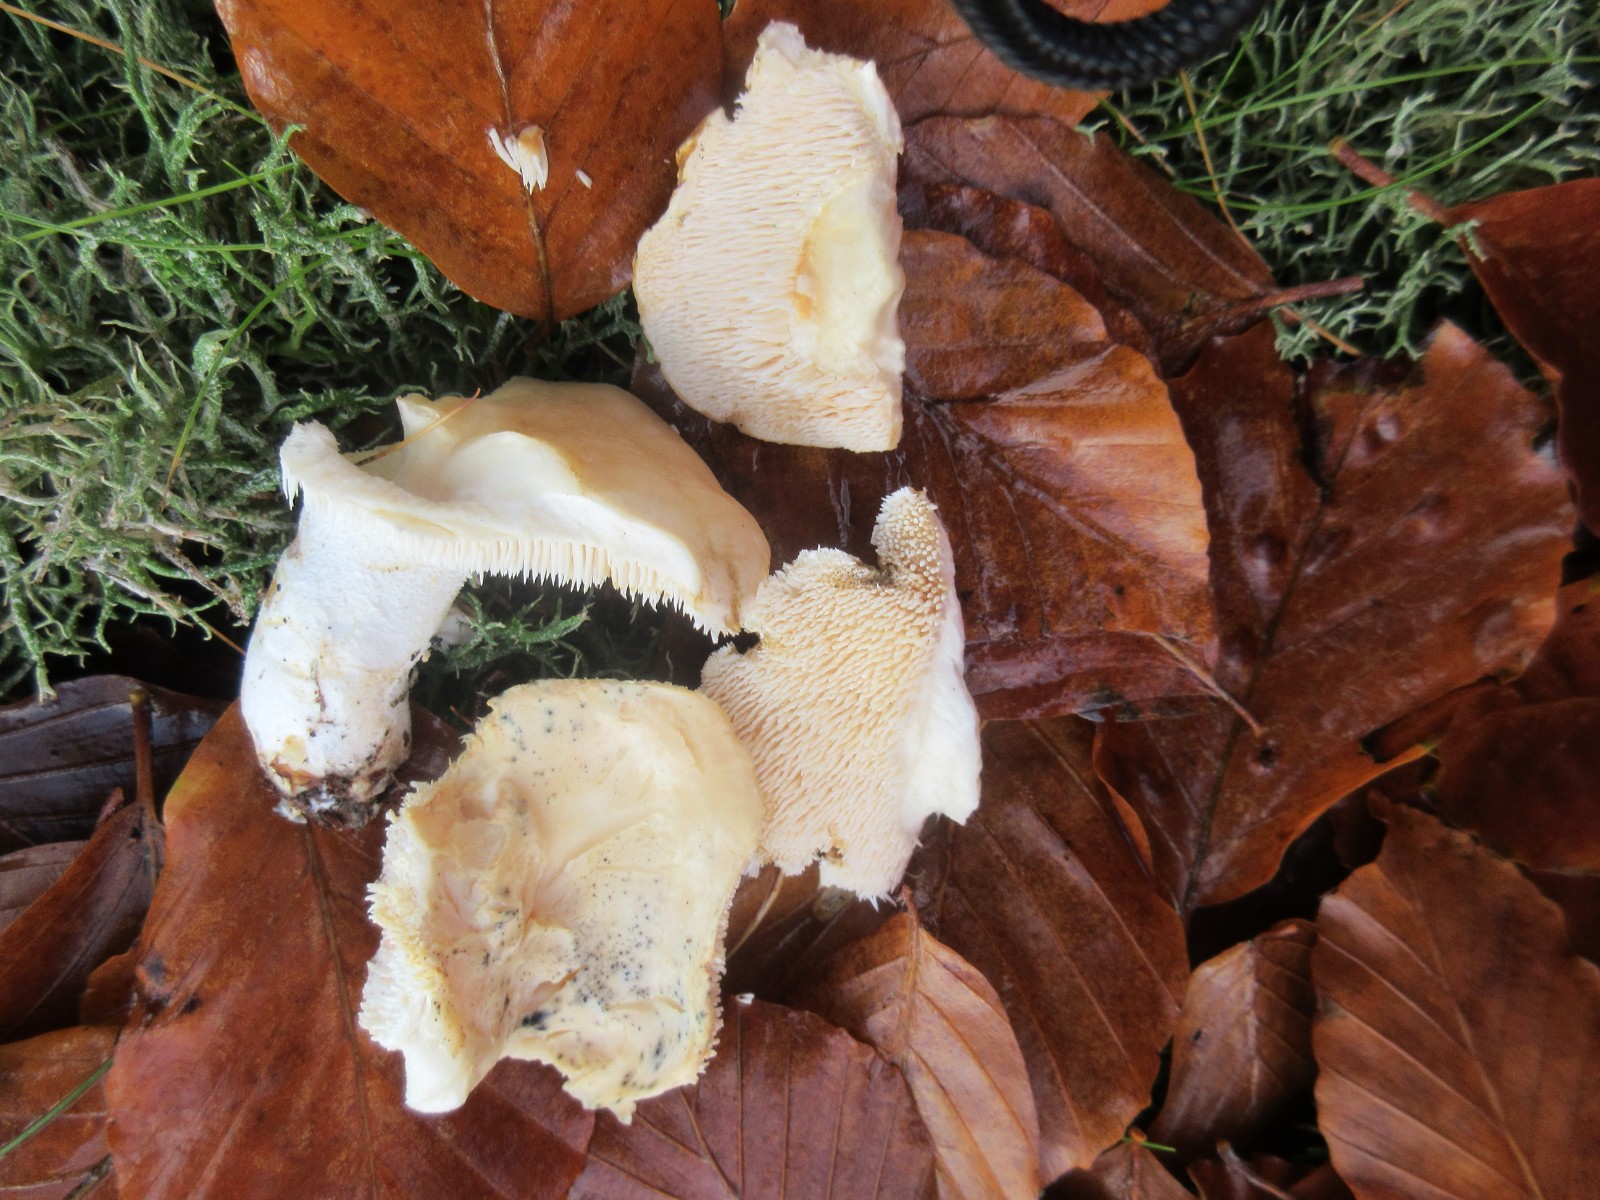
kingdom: Fungi
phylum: Basidiomycota
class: Agaricomycetes
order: Cantharellales
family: Hydnaceae
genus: Hydnum
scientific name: Hydnum repandum
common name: almindelig pigsvamp
